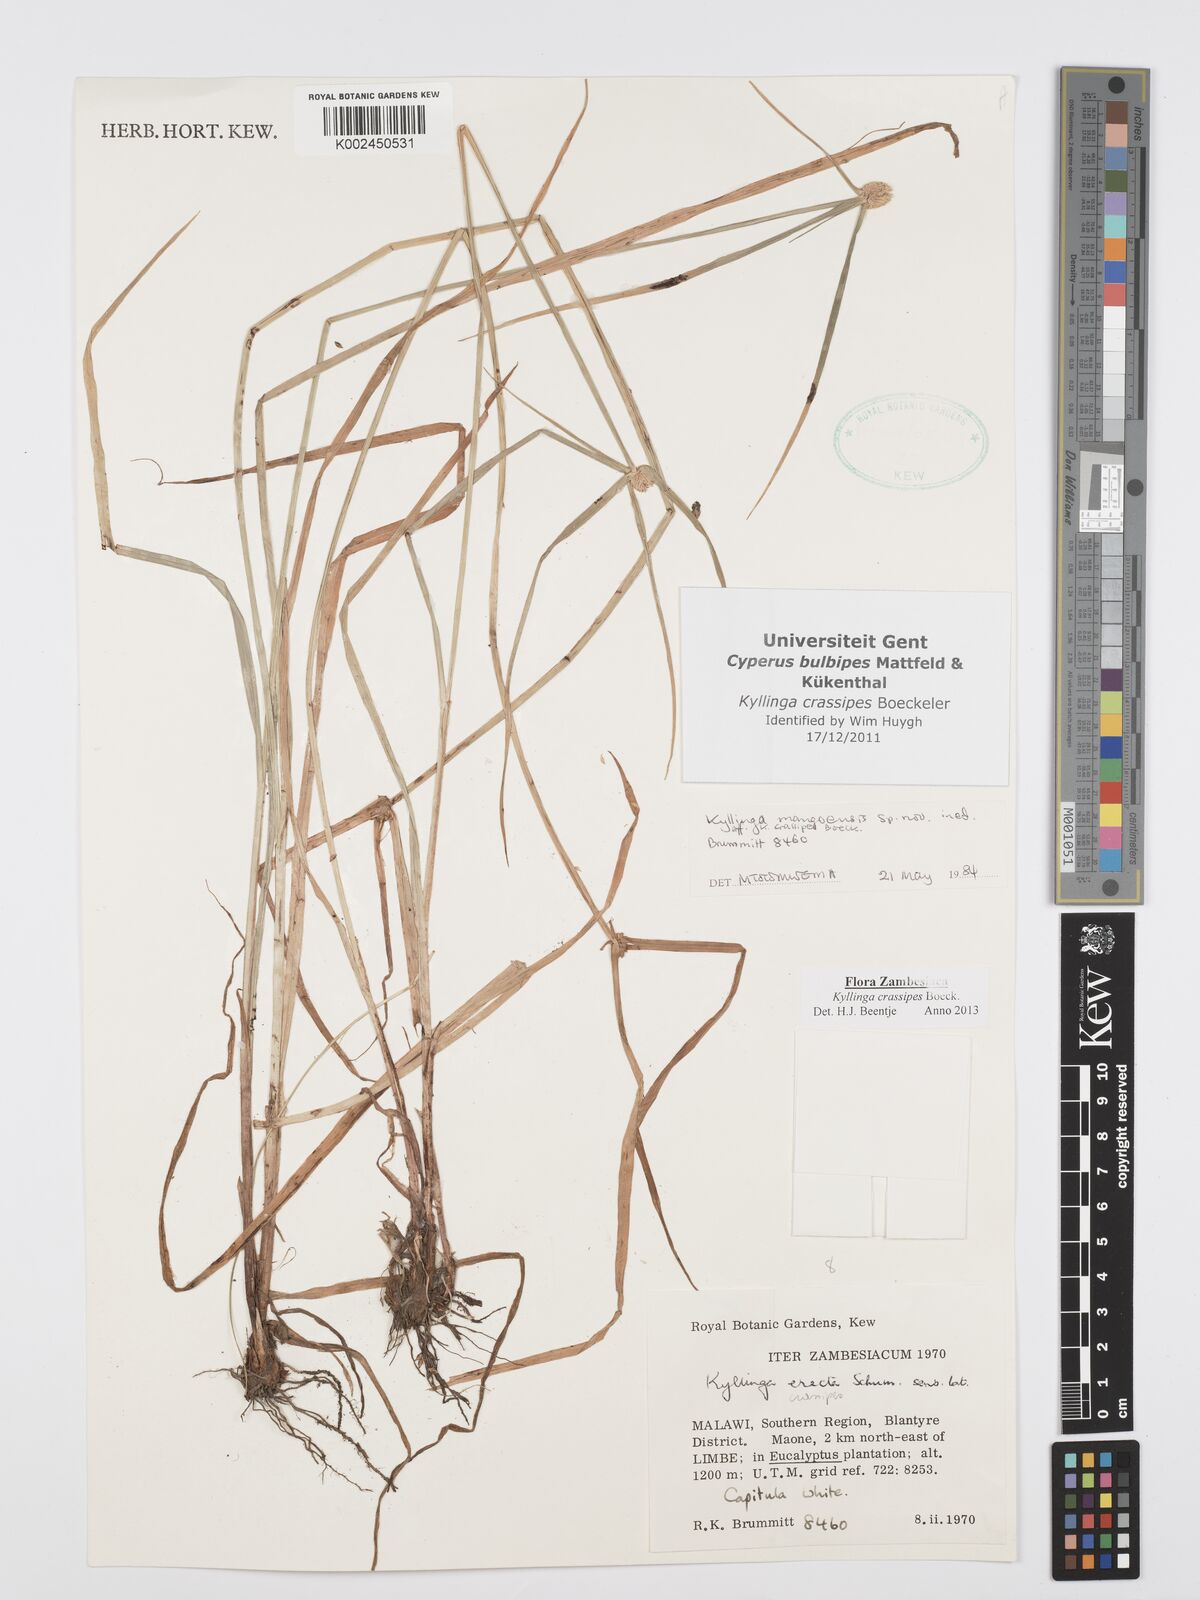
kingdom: Plantae
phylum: Tracheophyta
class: Liliopsida
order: Poales
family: Cyperaceae
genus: Cyperus
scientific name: Cyperus crassipes
